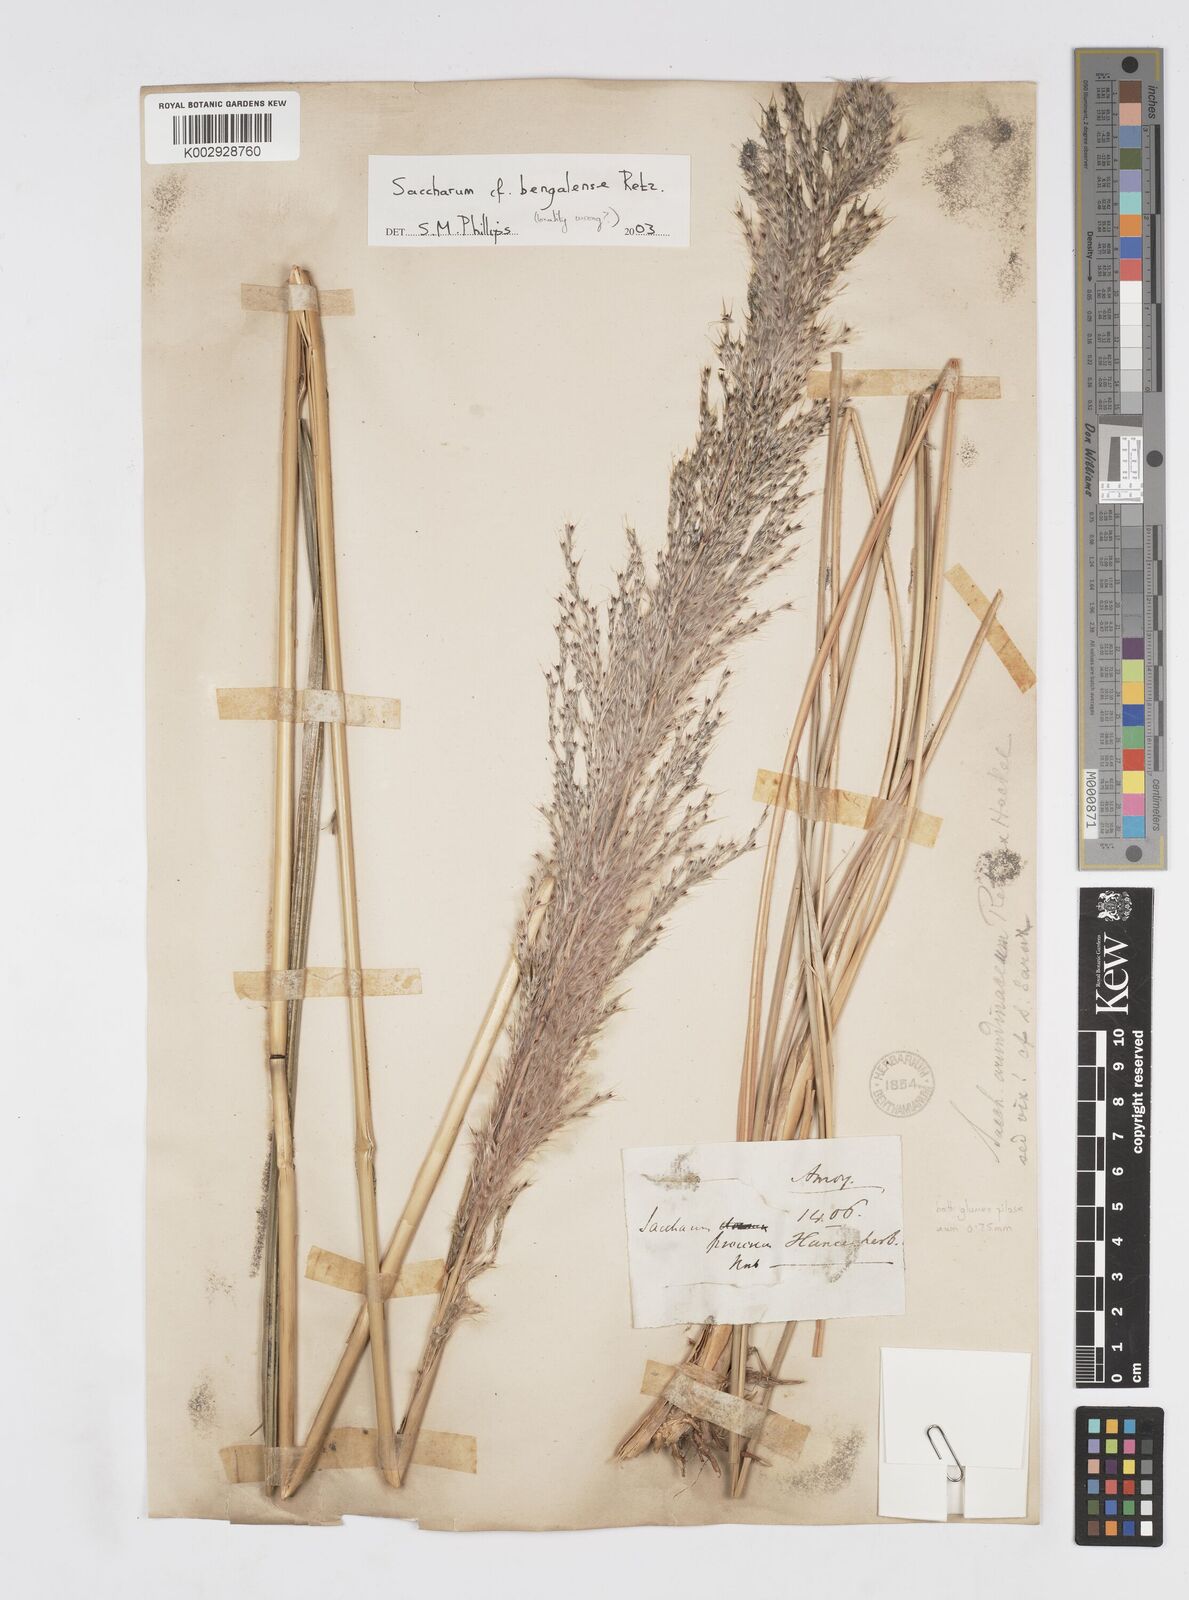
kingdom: Plantae
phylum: Tracheophyta
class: Liliopsida
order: Poales
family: Poaceae
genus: Tripidium
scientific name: Tripidium bengalense
